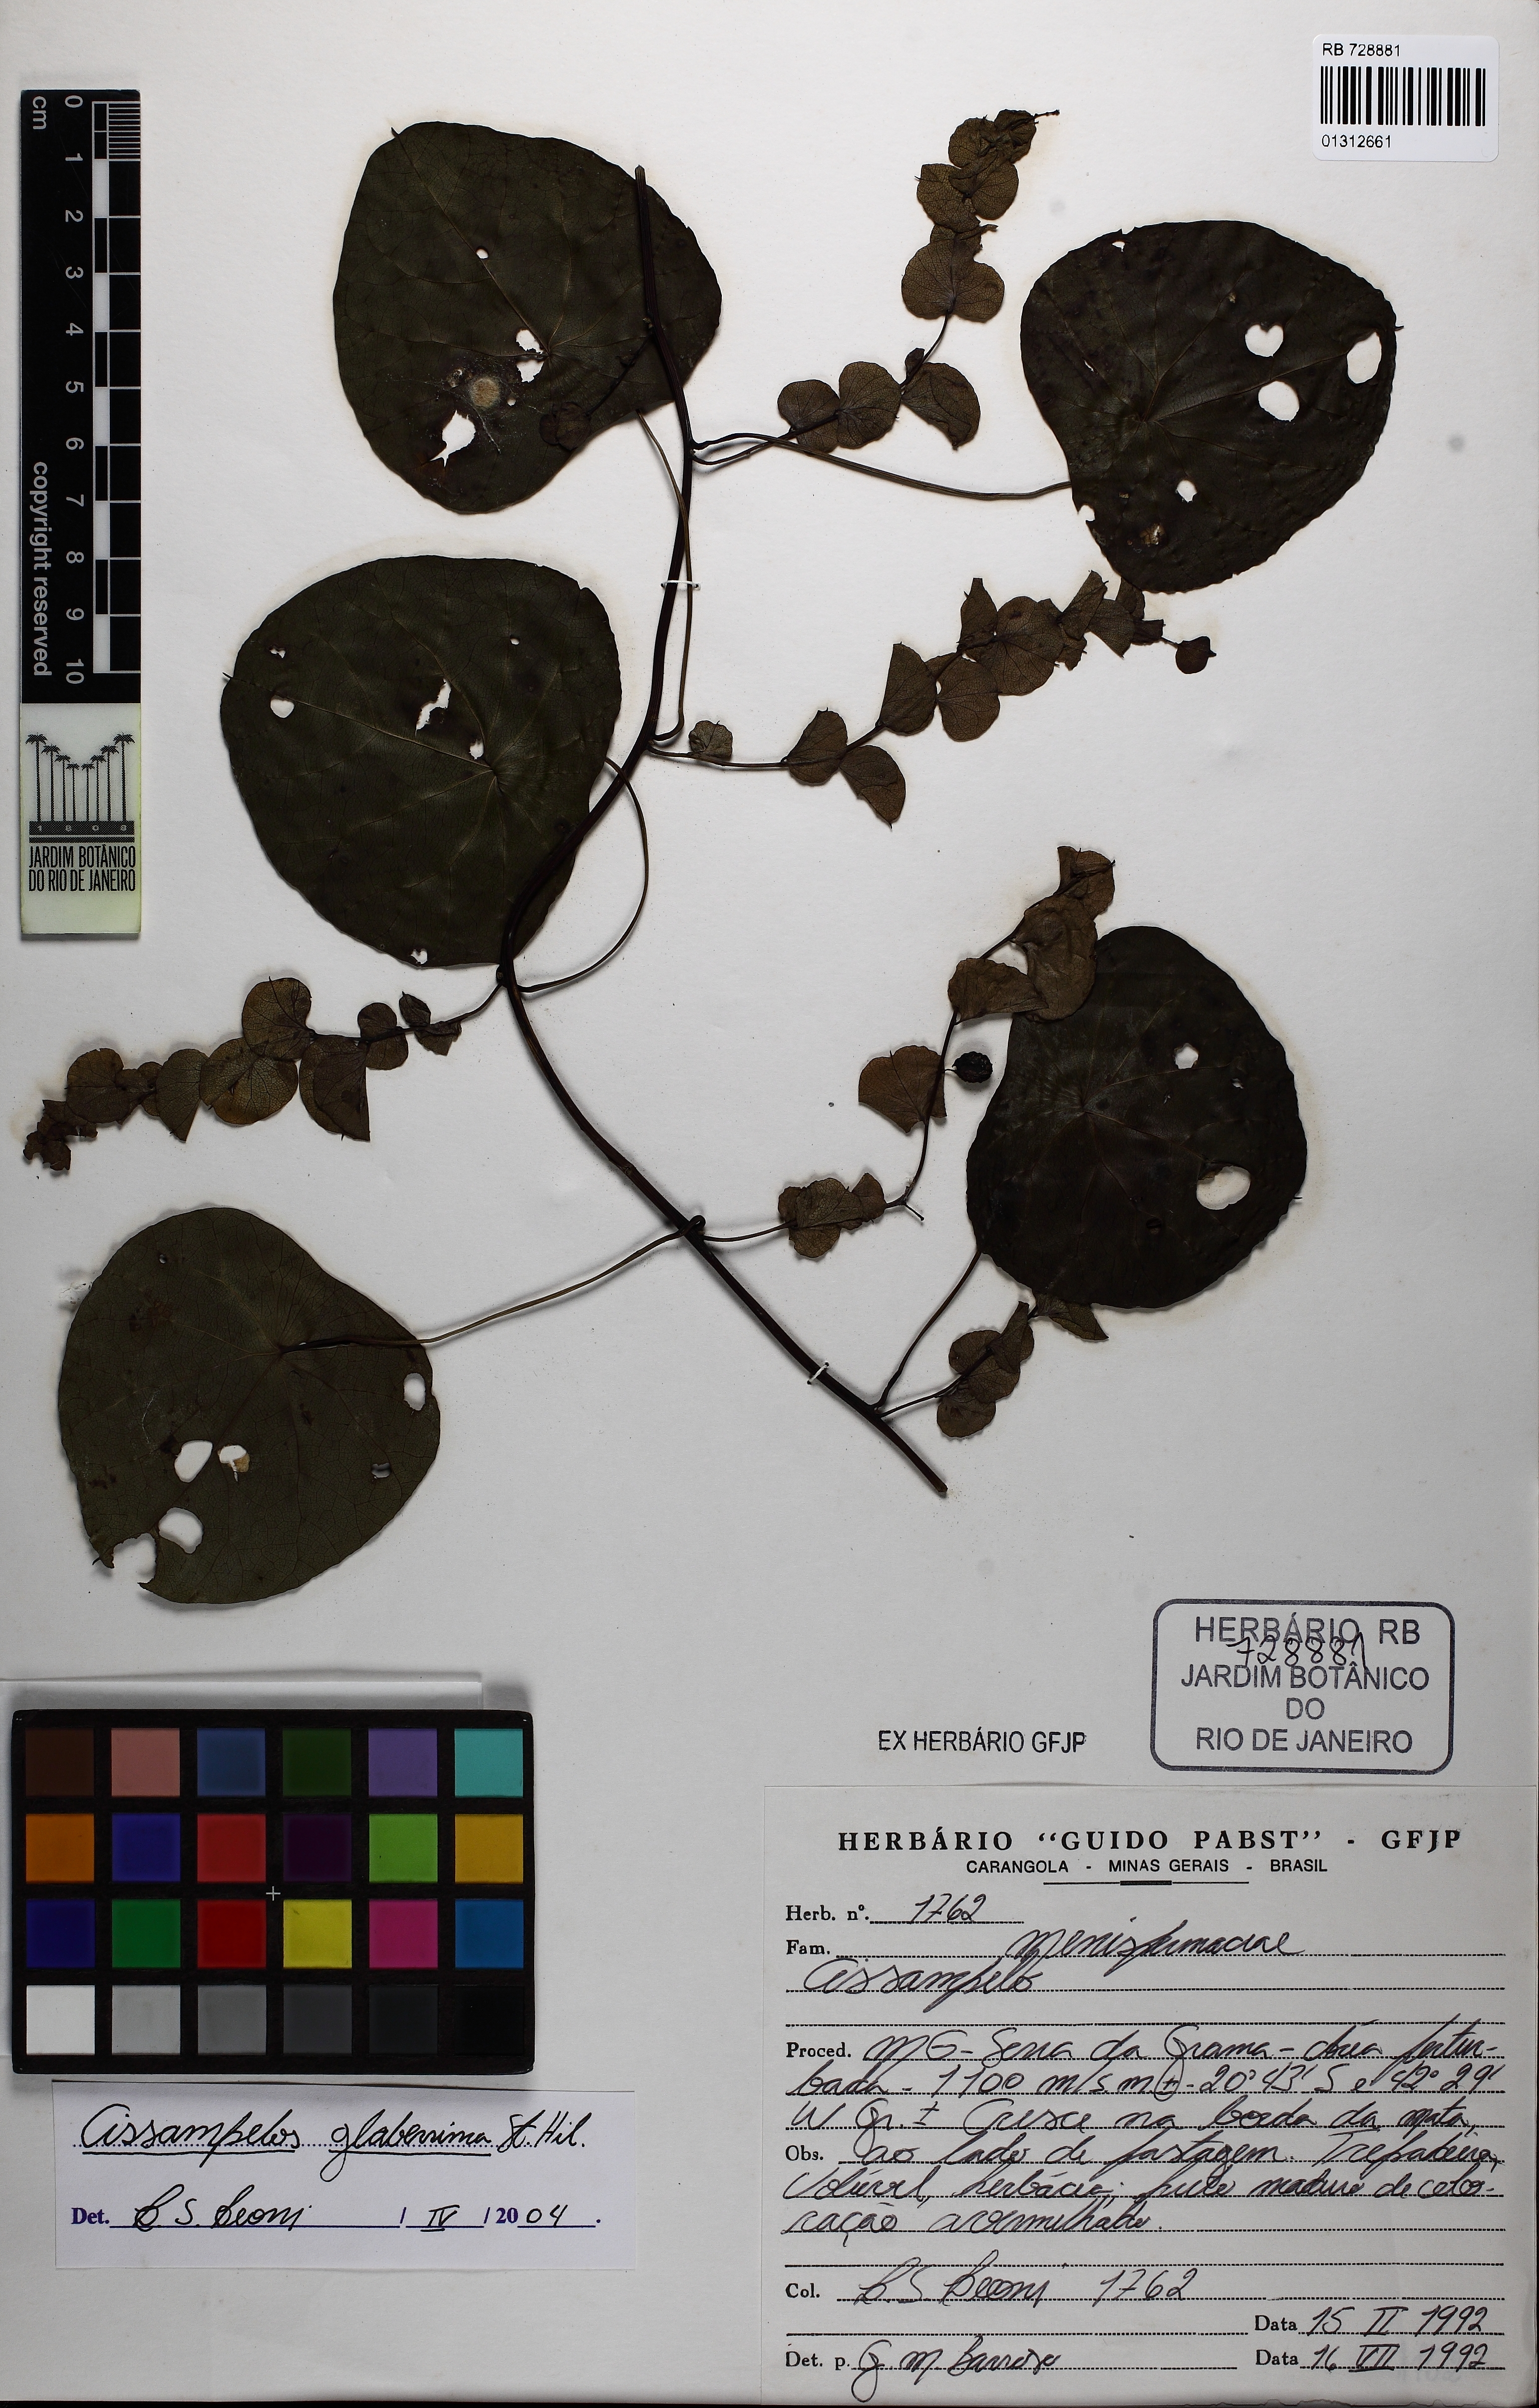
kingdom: Plantae
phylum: Tracheophyta
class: Magnoliopsida
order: Ranunculales
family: Menispermaceae
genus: Cissampelos
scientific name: Cissampelos glaberrima
